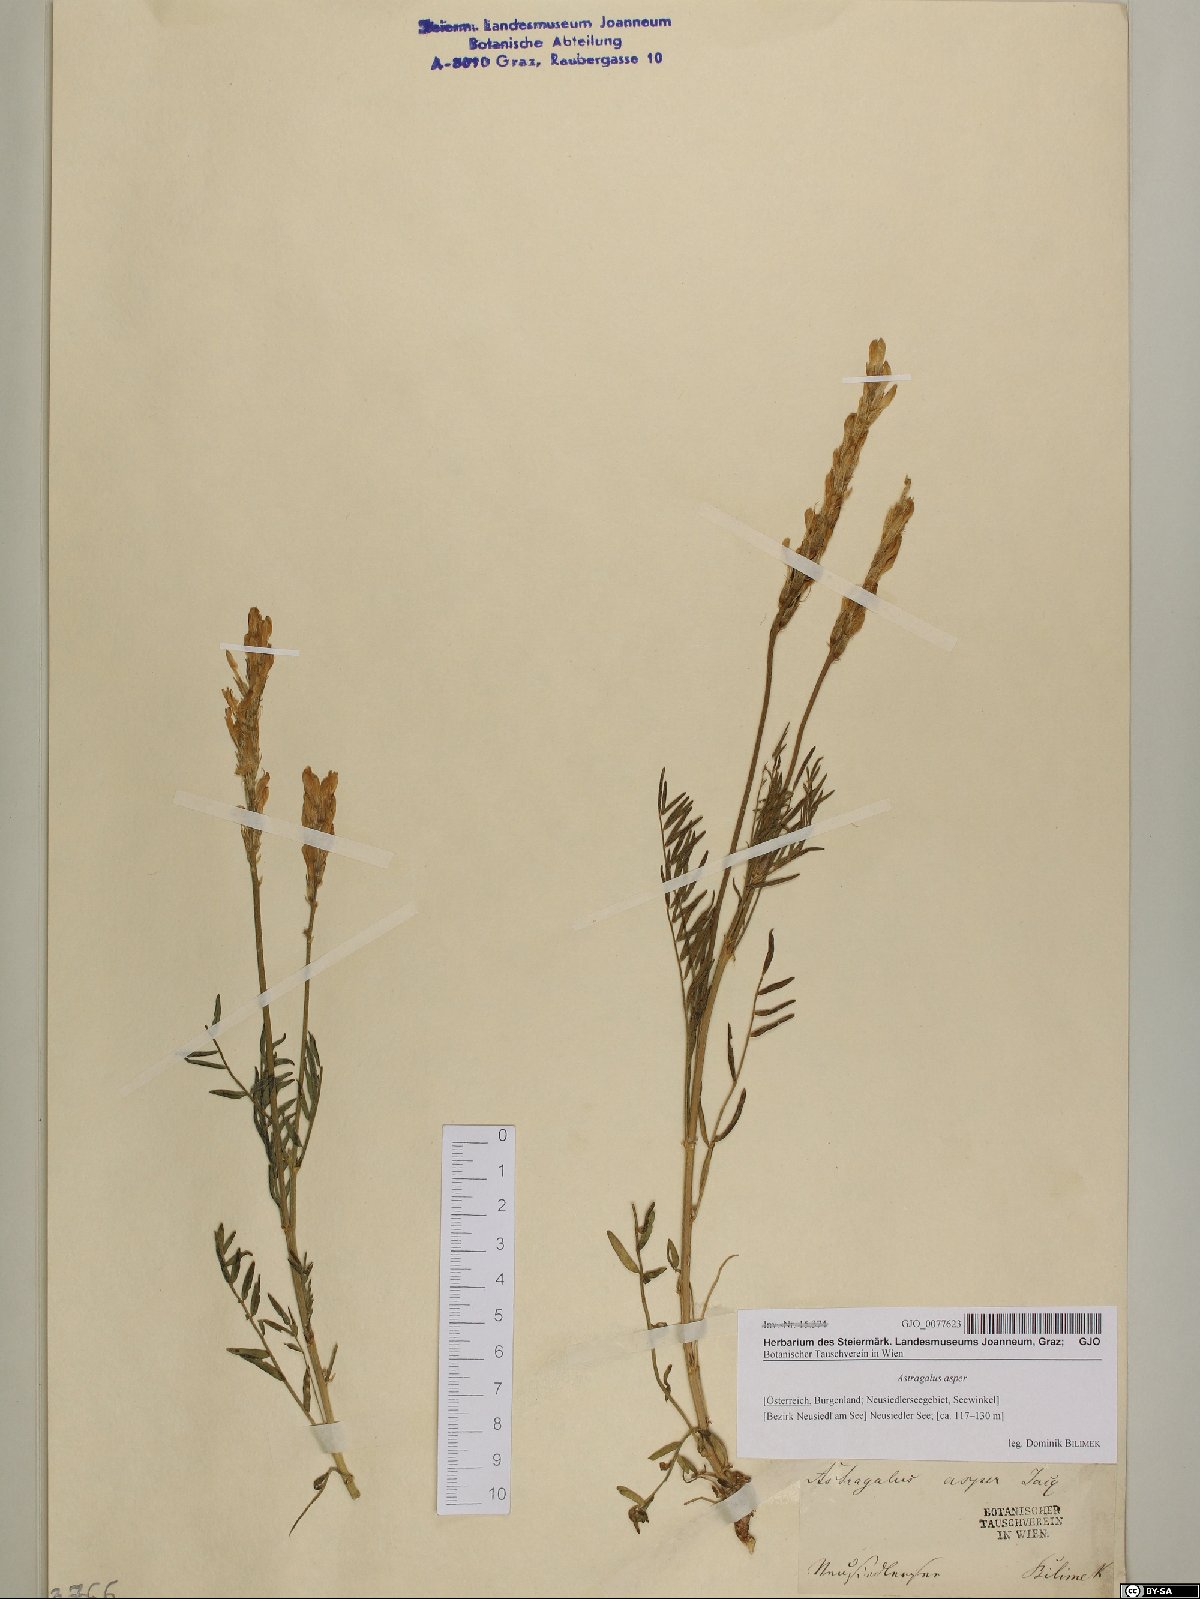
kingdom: Plantae
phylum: Tracheophyta
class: Magnoliopsida
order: Fabales
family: Fabaceae
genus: Astragalus
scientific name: Astragalus asper
